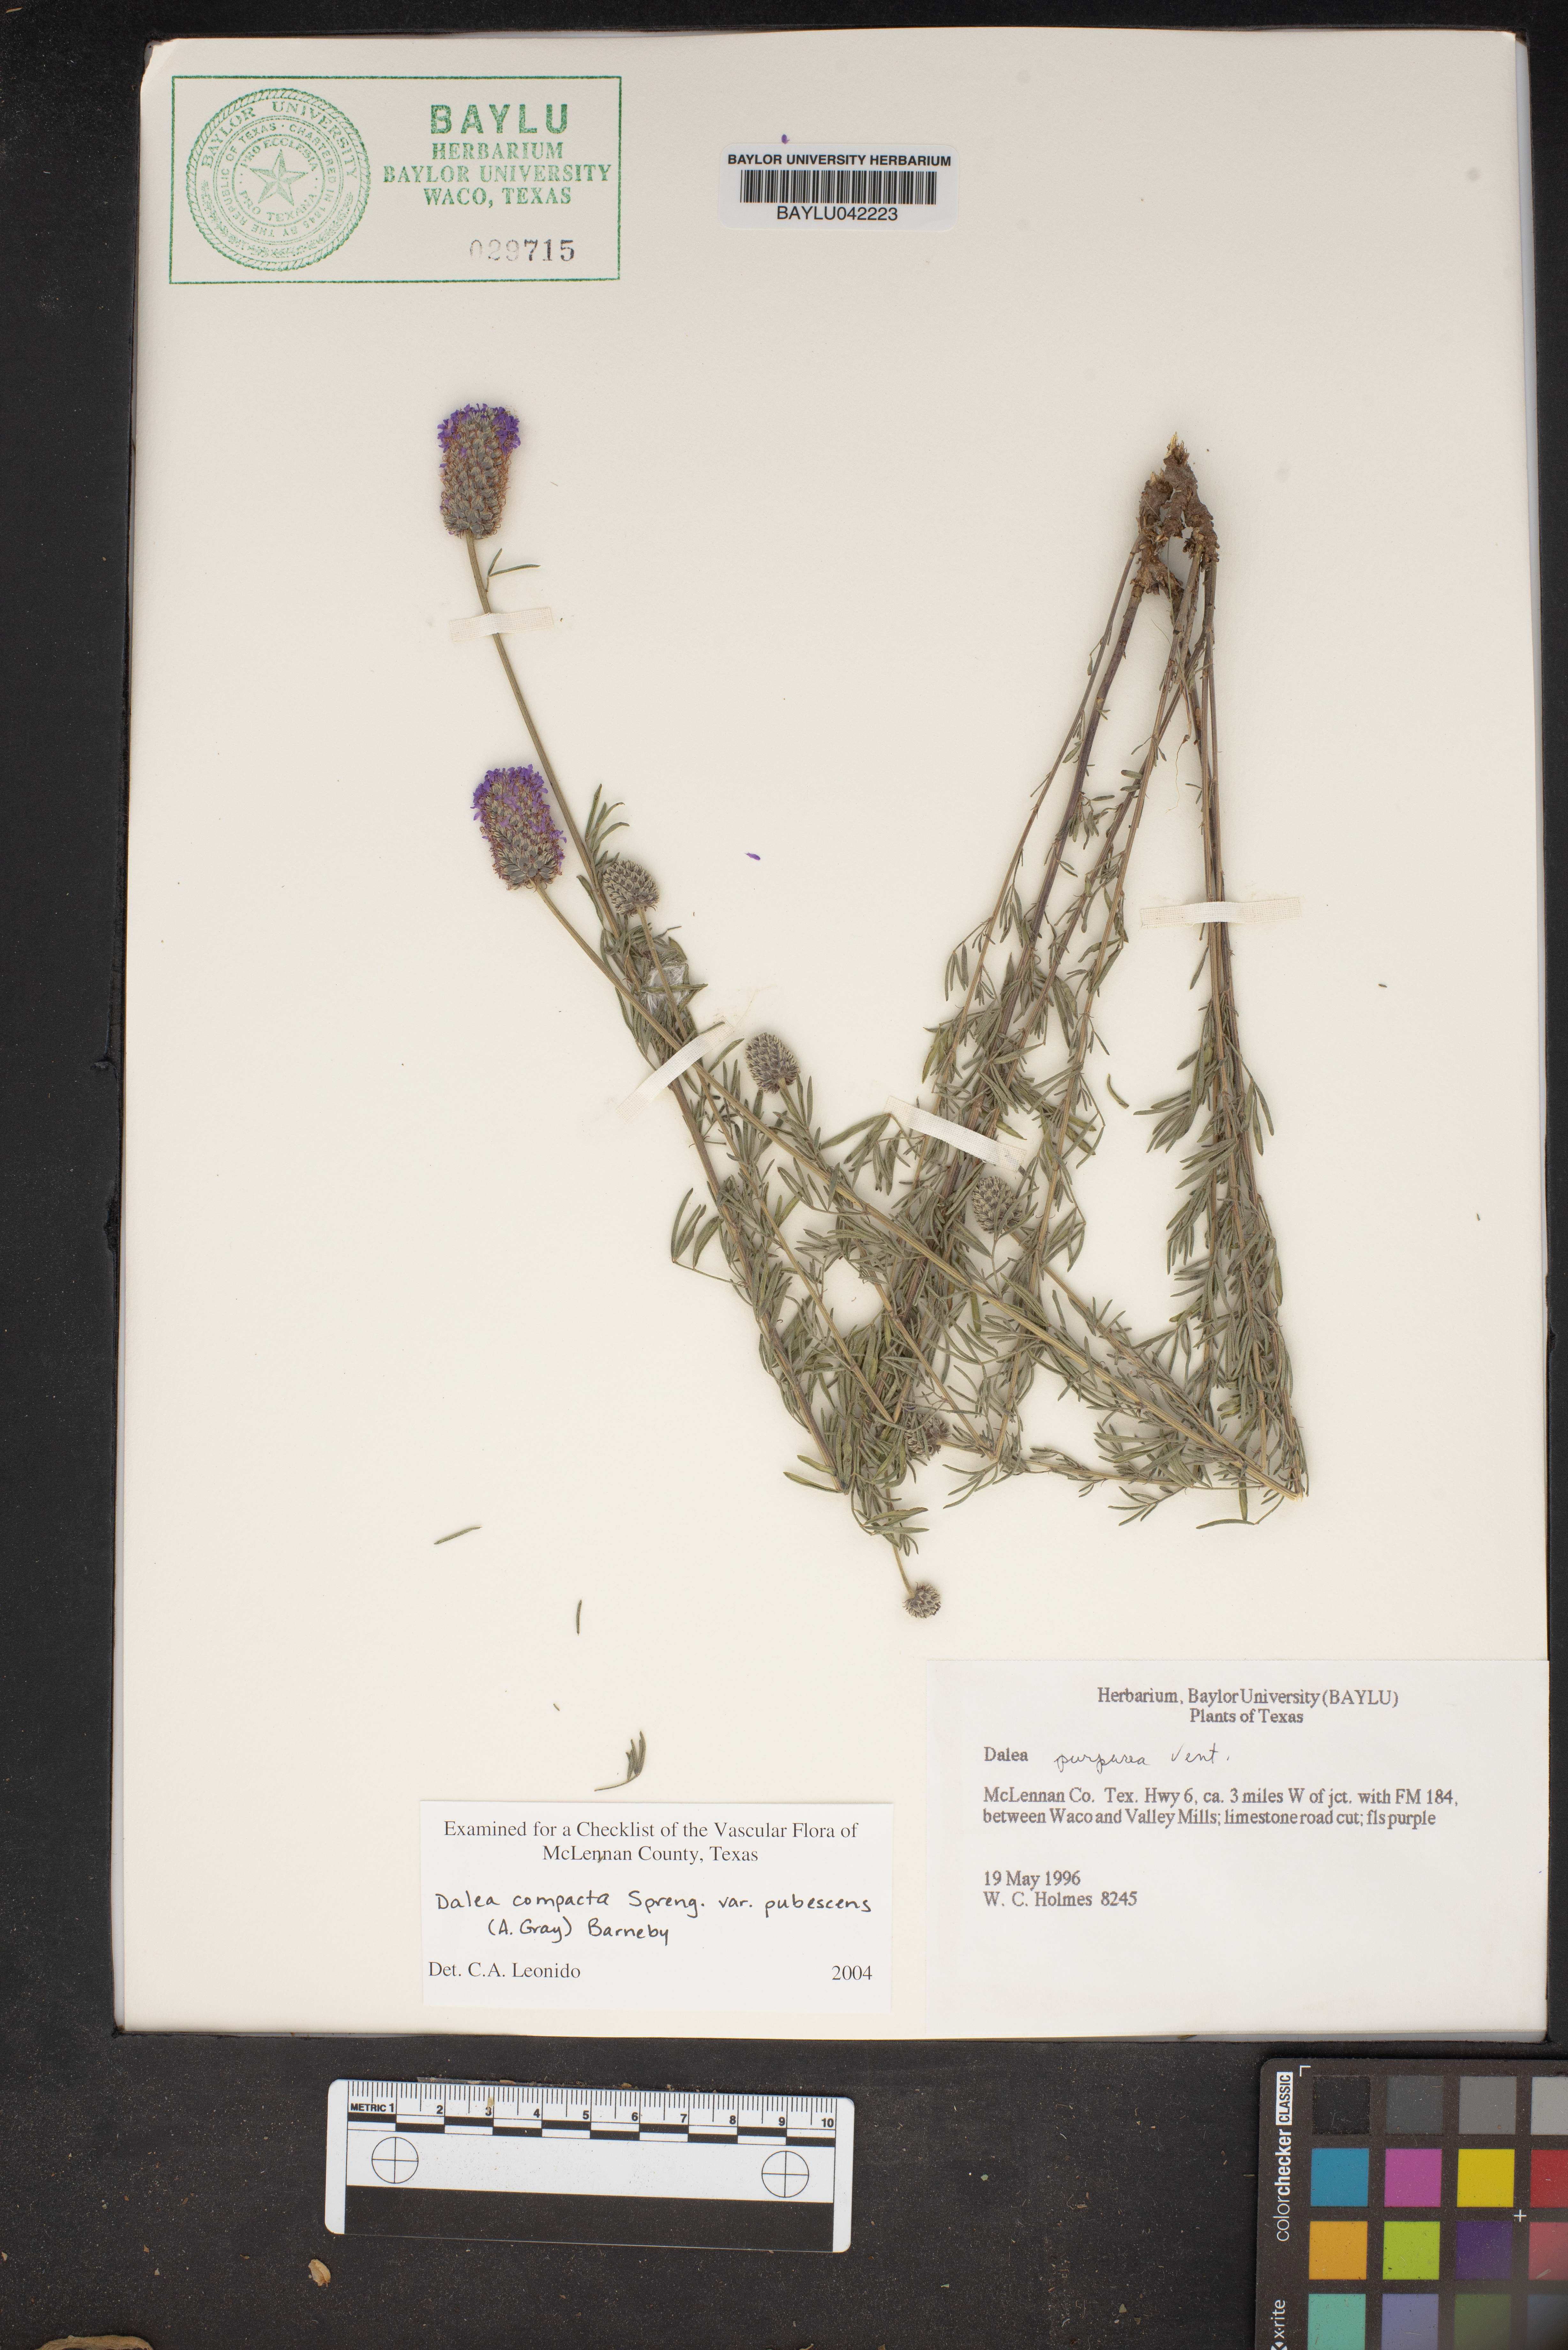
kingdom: Plantae
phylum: Tracheophyta
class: Magnoliopsida
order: Fabales
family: Fabaceae
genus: Dalea
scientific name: Dalea compacta
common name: Compact prairie-clover
